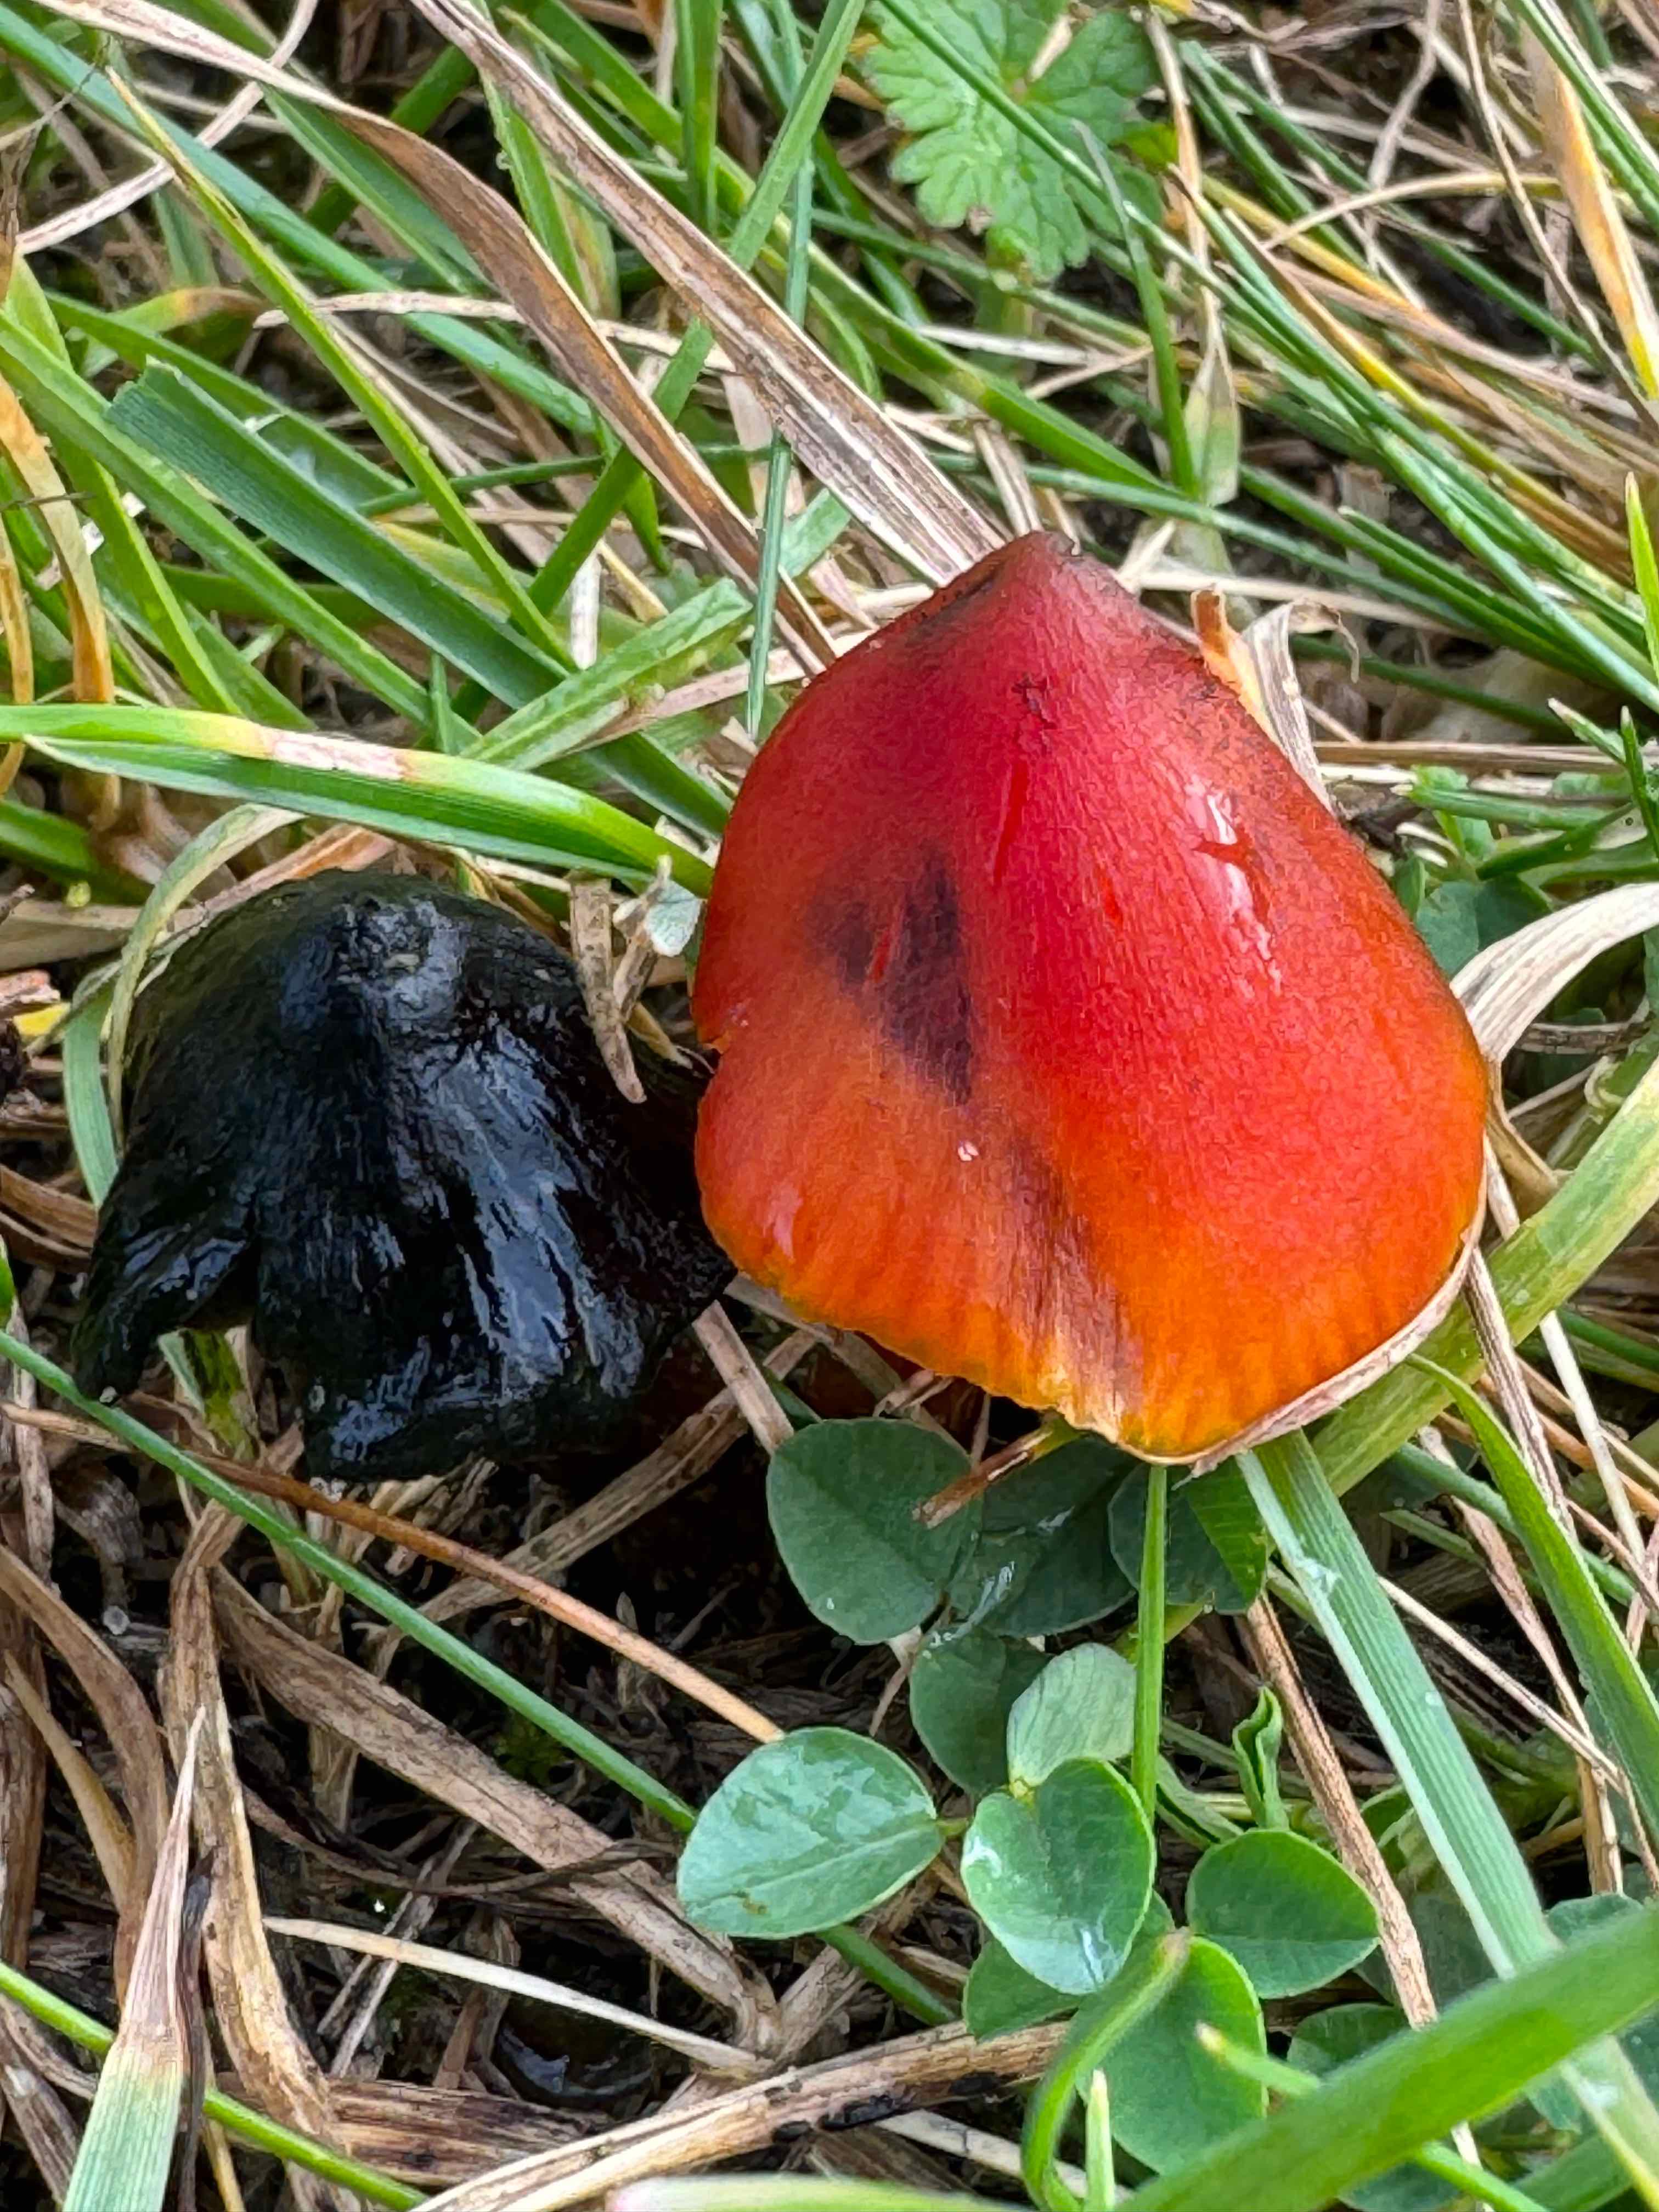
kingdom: Fungi
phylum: Basidiomycota
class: Agaricomycetes
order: Agaricales
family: Hygrophoraceae
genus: Hygrocybe
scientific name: Hygrocybe conica
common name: kegle-vokshat
